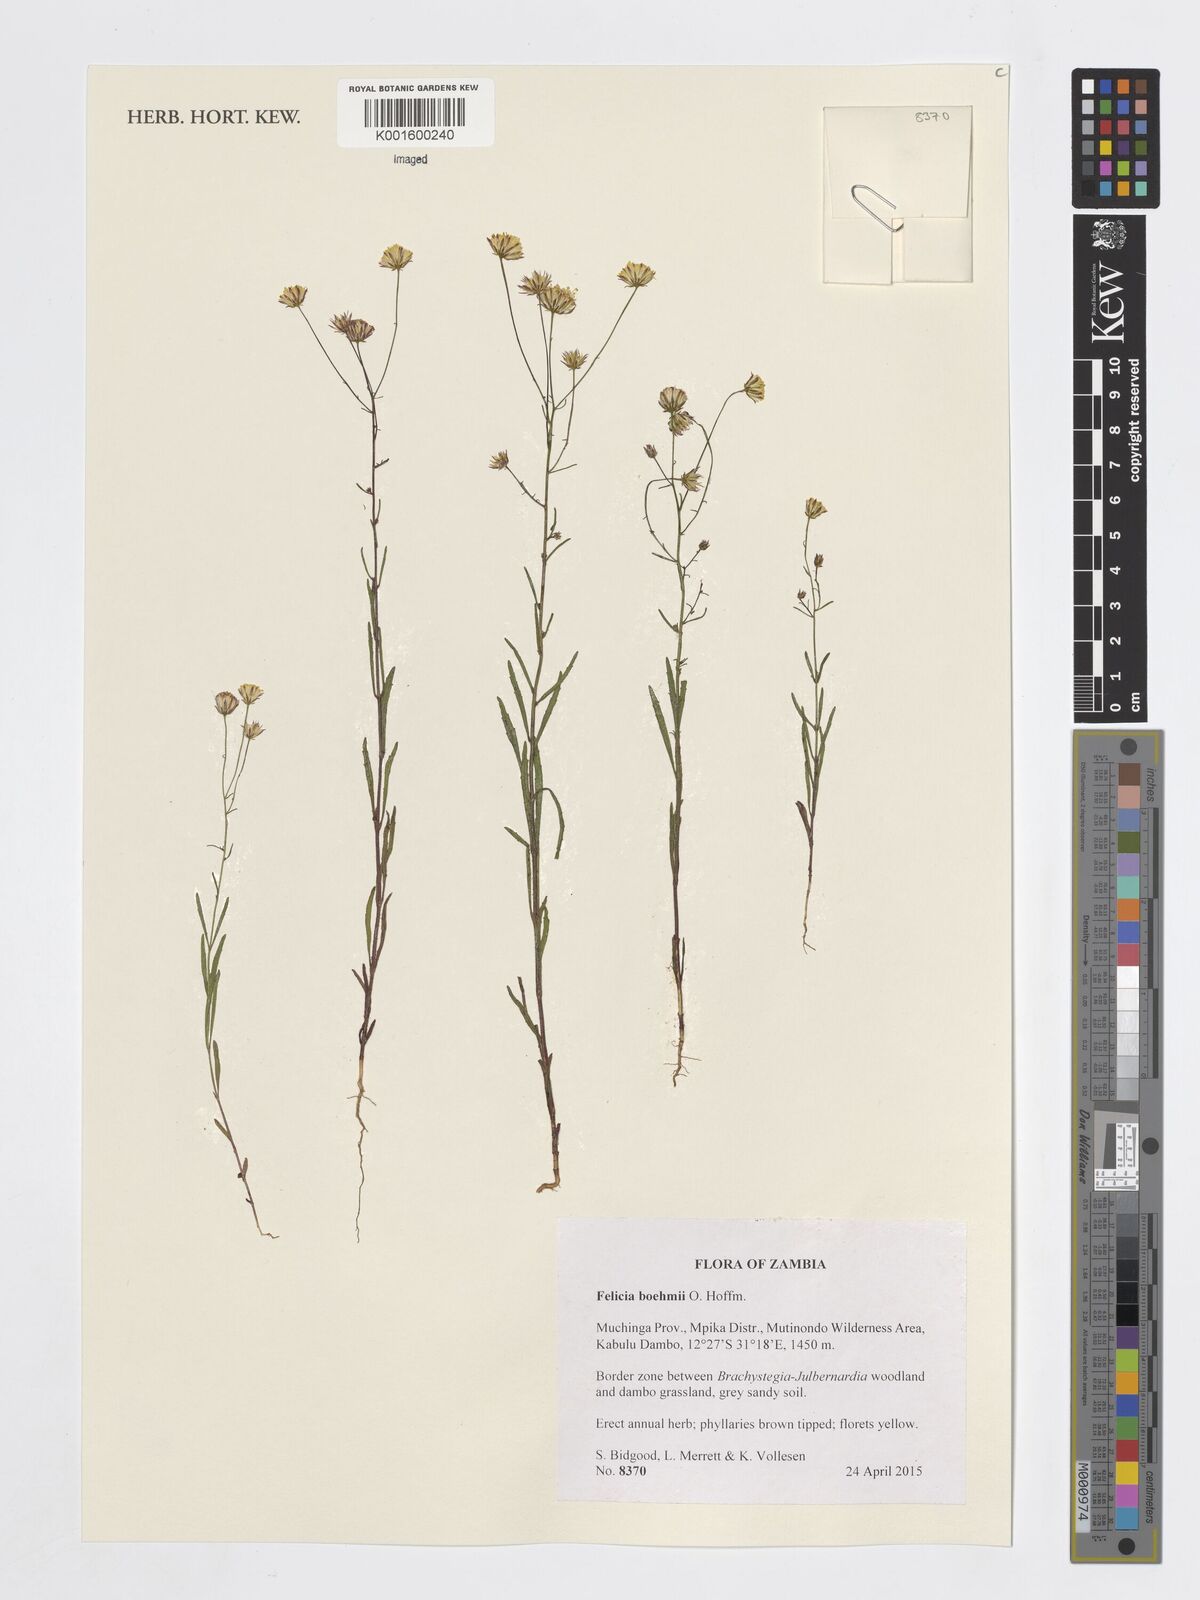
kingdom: Plantae
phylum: Tracheophyta
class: Magnoliopsida
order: Asterales
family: Asteraceae
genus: Felicia
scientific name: Felicia boehmii
